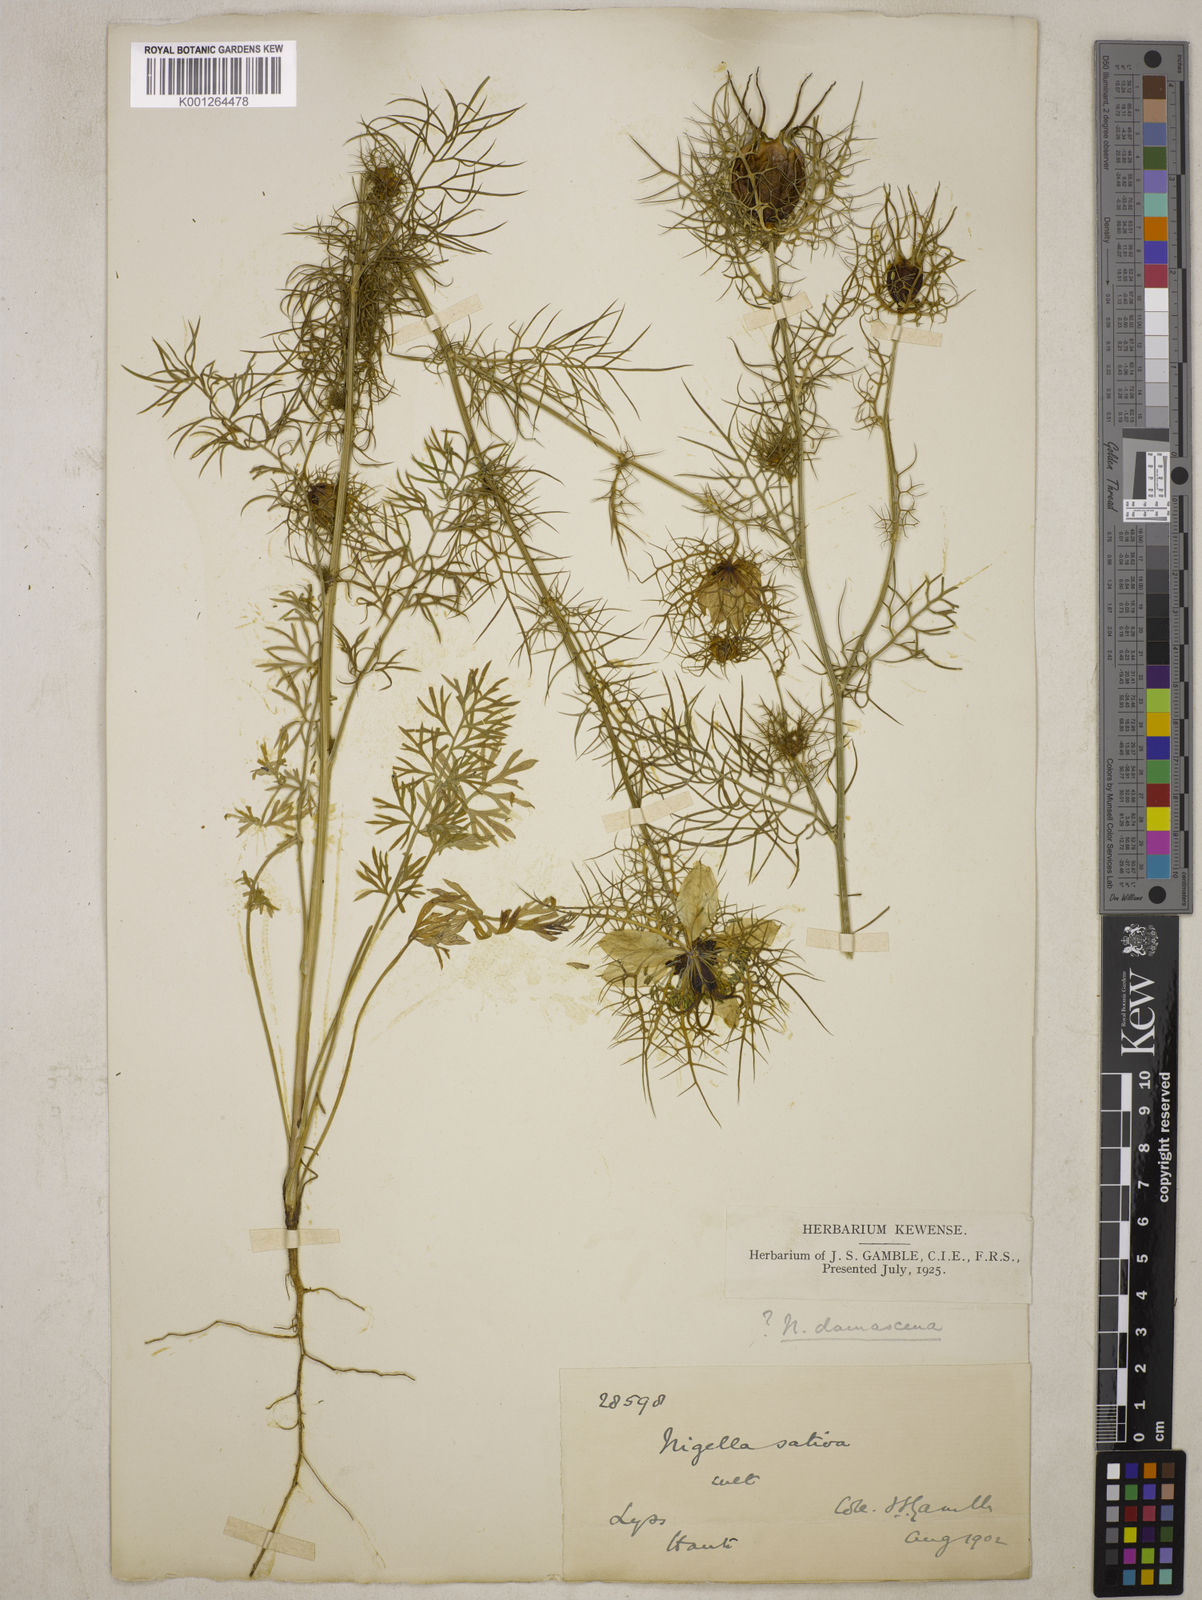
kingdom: Plantae
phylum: Tracheophyta
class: Magnoliopsida
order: Ranunculales
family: Ranunculaceae
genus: Nigella
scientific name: Nigella damascena
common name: Love-in-a-mist
